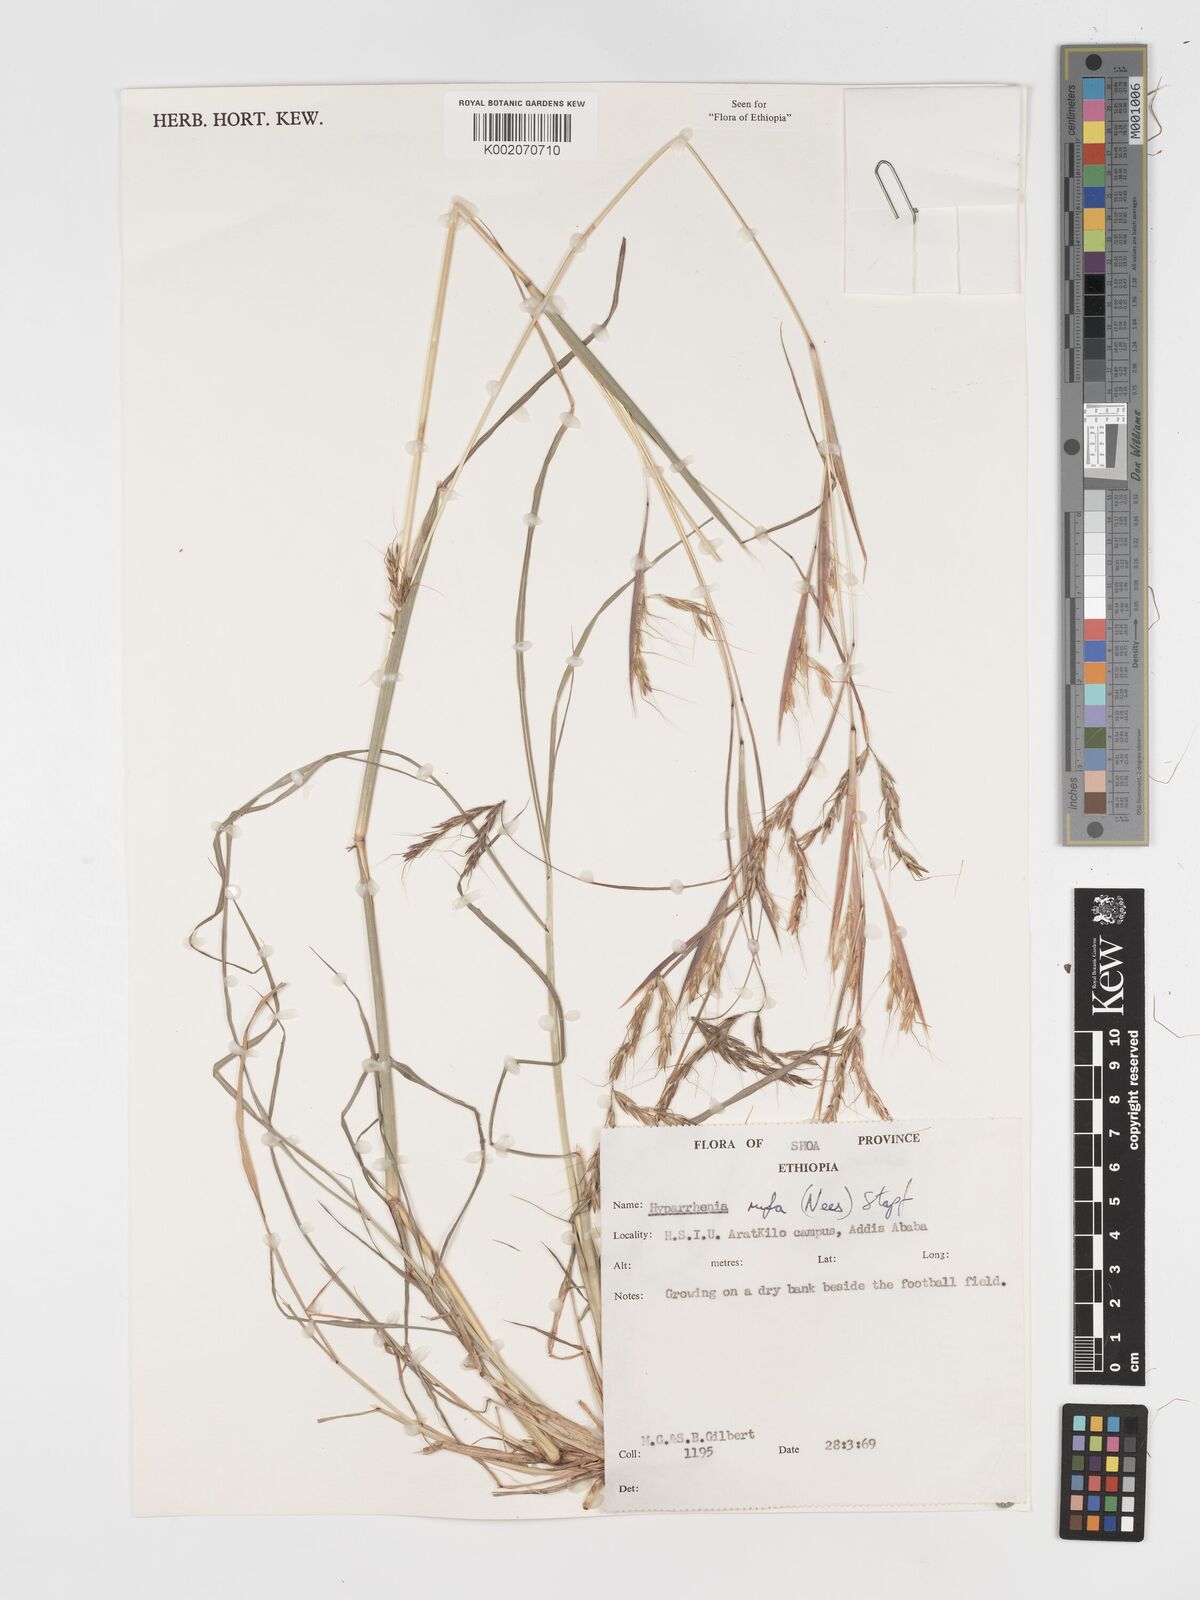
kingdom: Plantae
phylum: Tracheophyta
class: Liliopsida
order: Poales
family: Poaceae
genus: Hyparrhenia
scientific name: Hyparrhenia rufa
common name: Jaraguagrass
